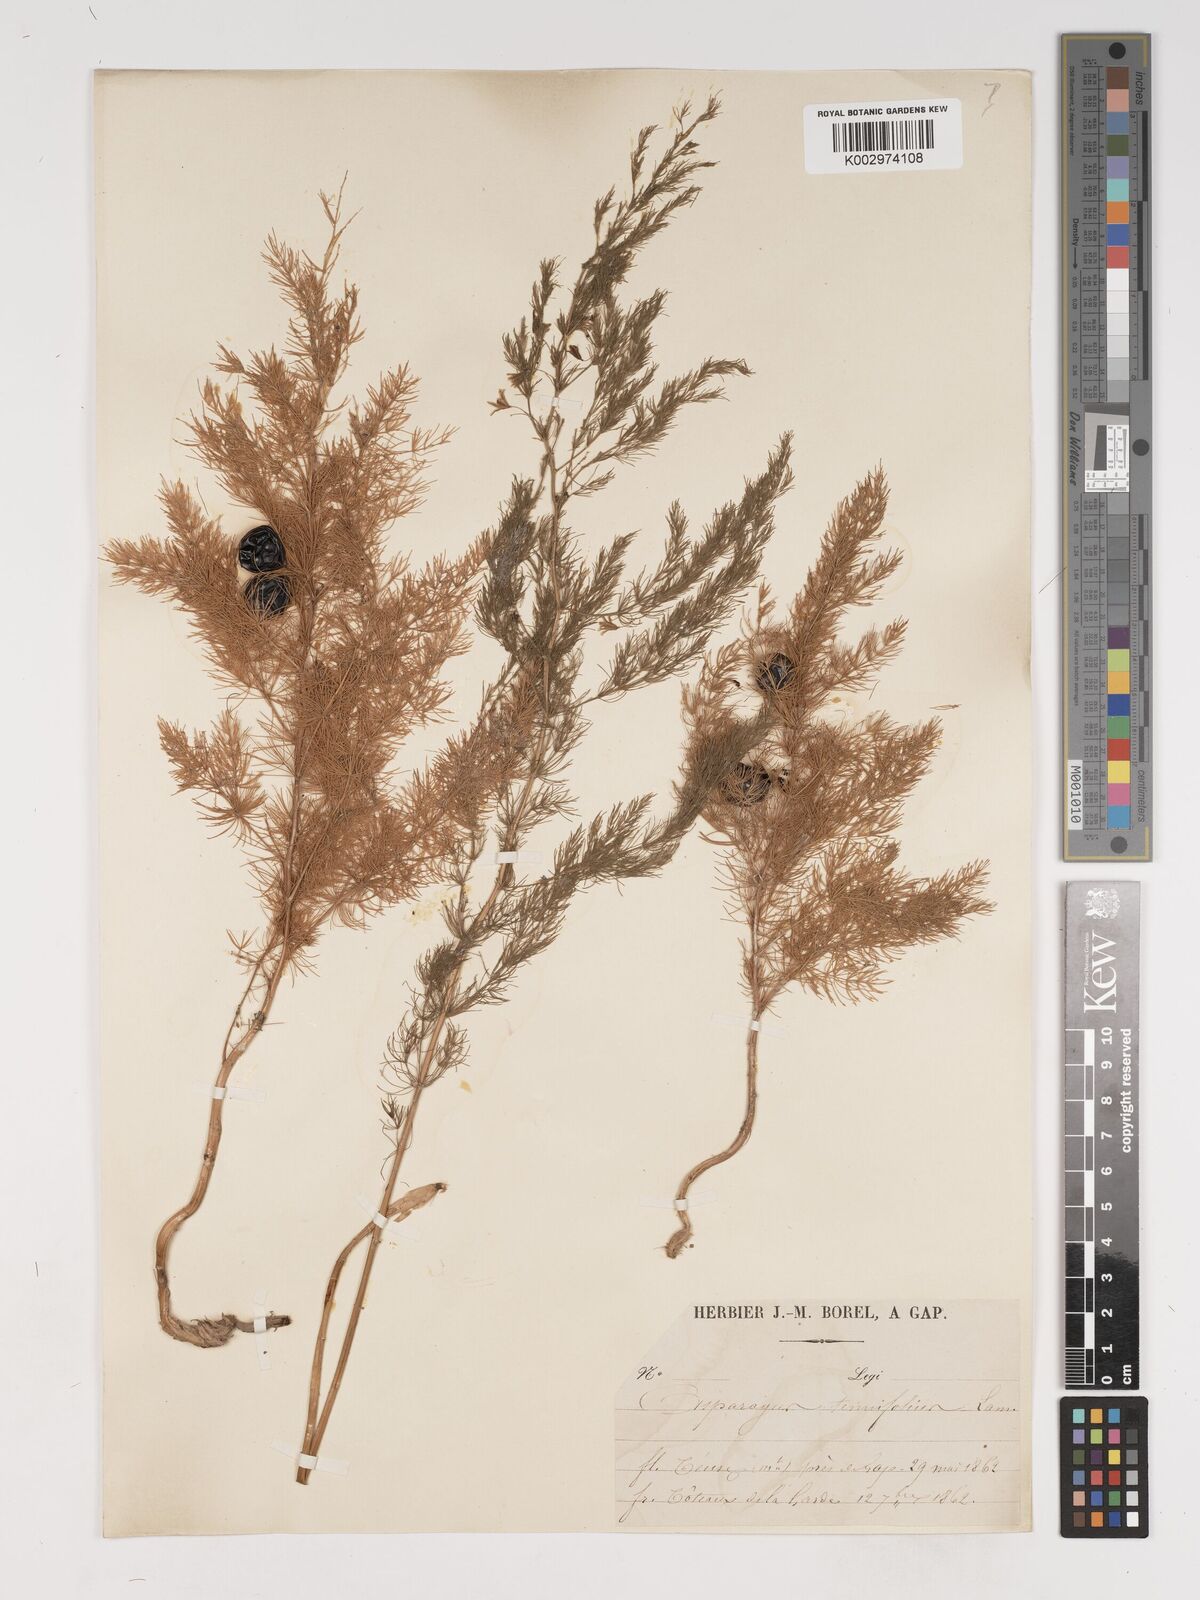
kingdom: Plantae
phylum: Tracheophyta
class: Liliopsida
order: Asparagales
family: Asparagaceae
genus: Asparagus
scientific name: Asparagus tenuifolius
